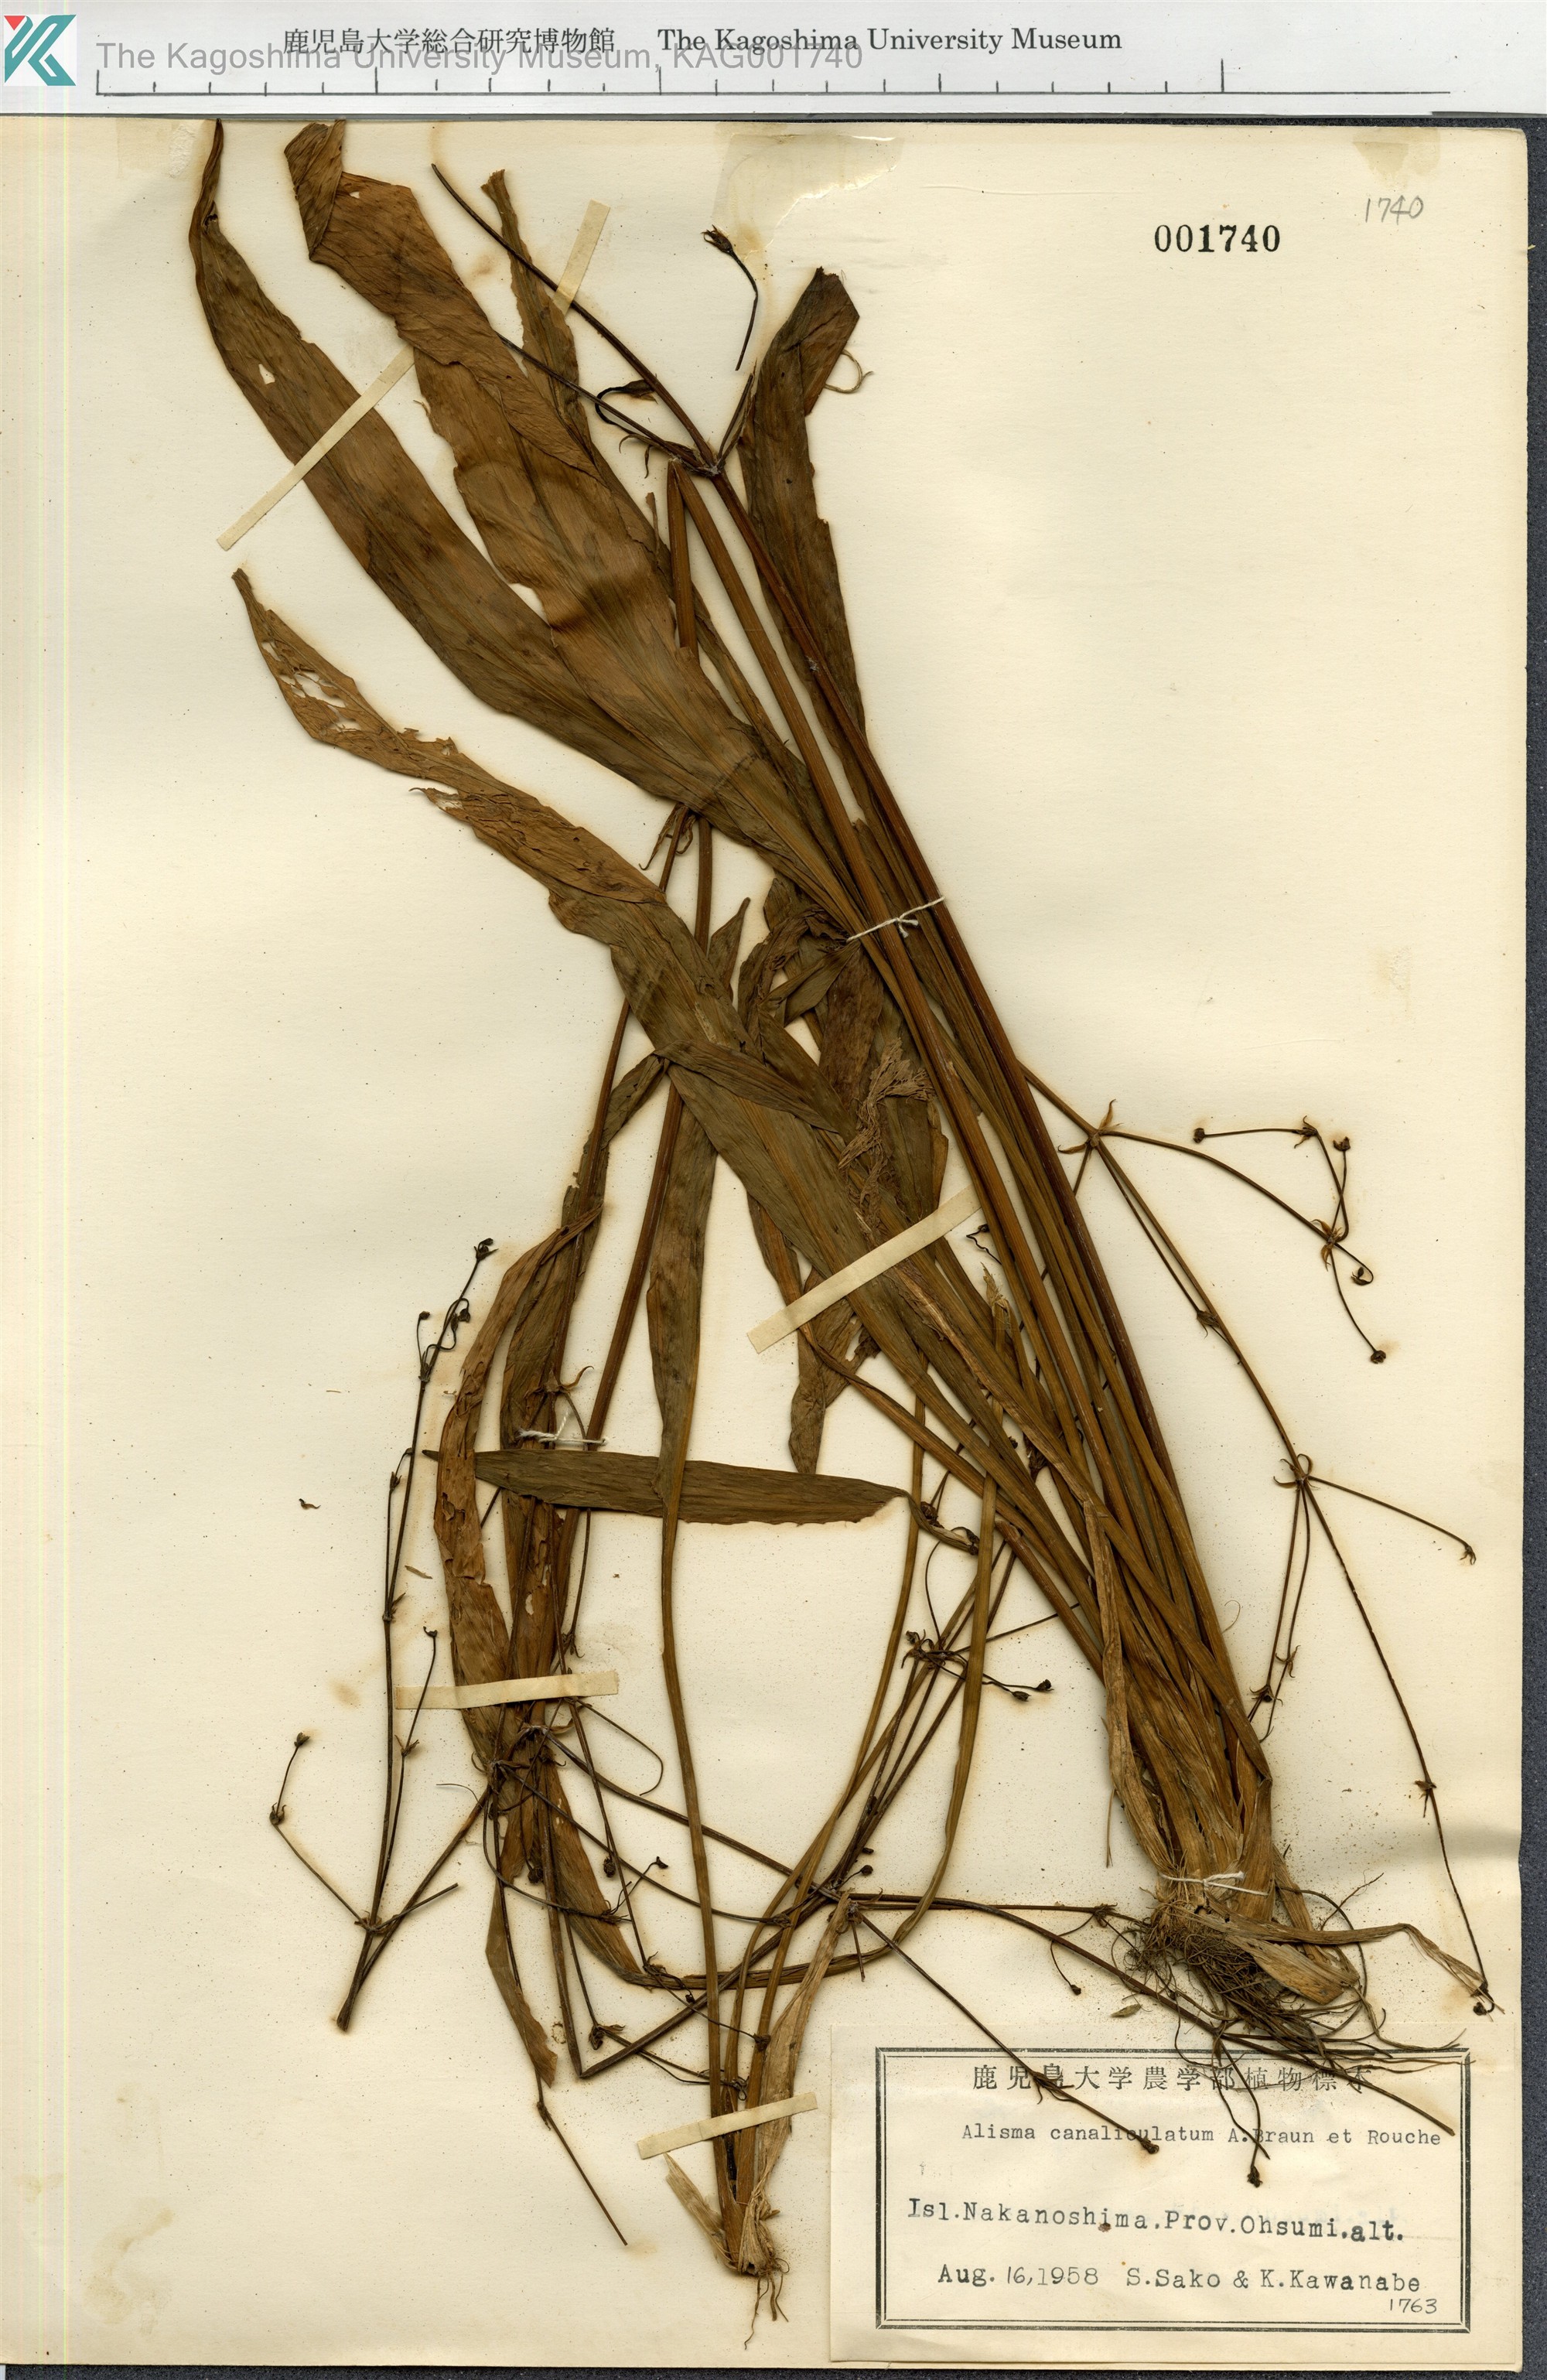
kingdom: Plantae
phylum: Tracheophyta
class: Liliopsida
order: Alismatales
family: Alismataceae
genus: Alisma
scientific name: Alisma canaliculatum
